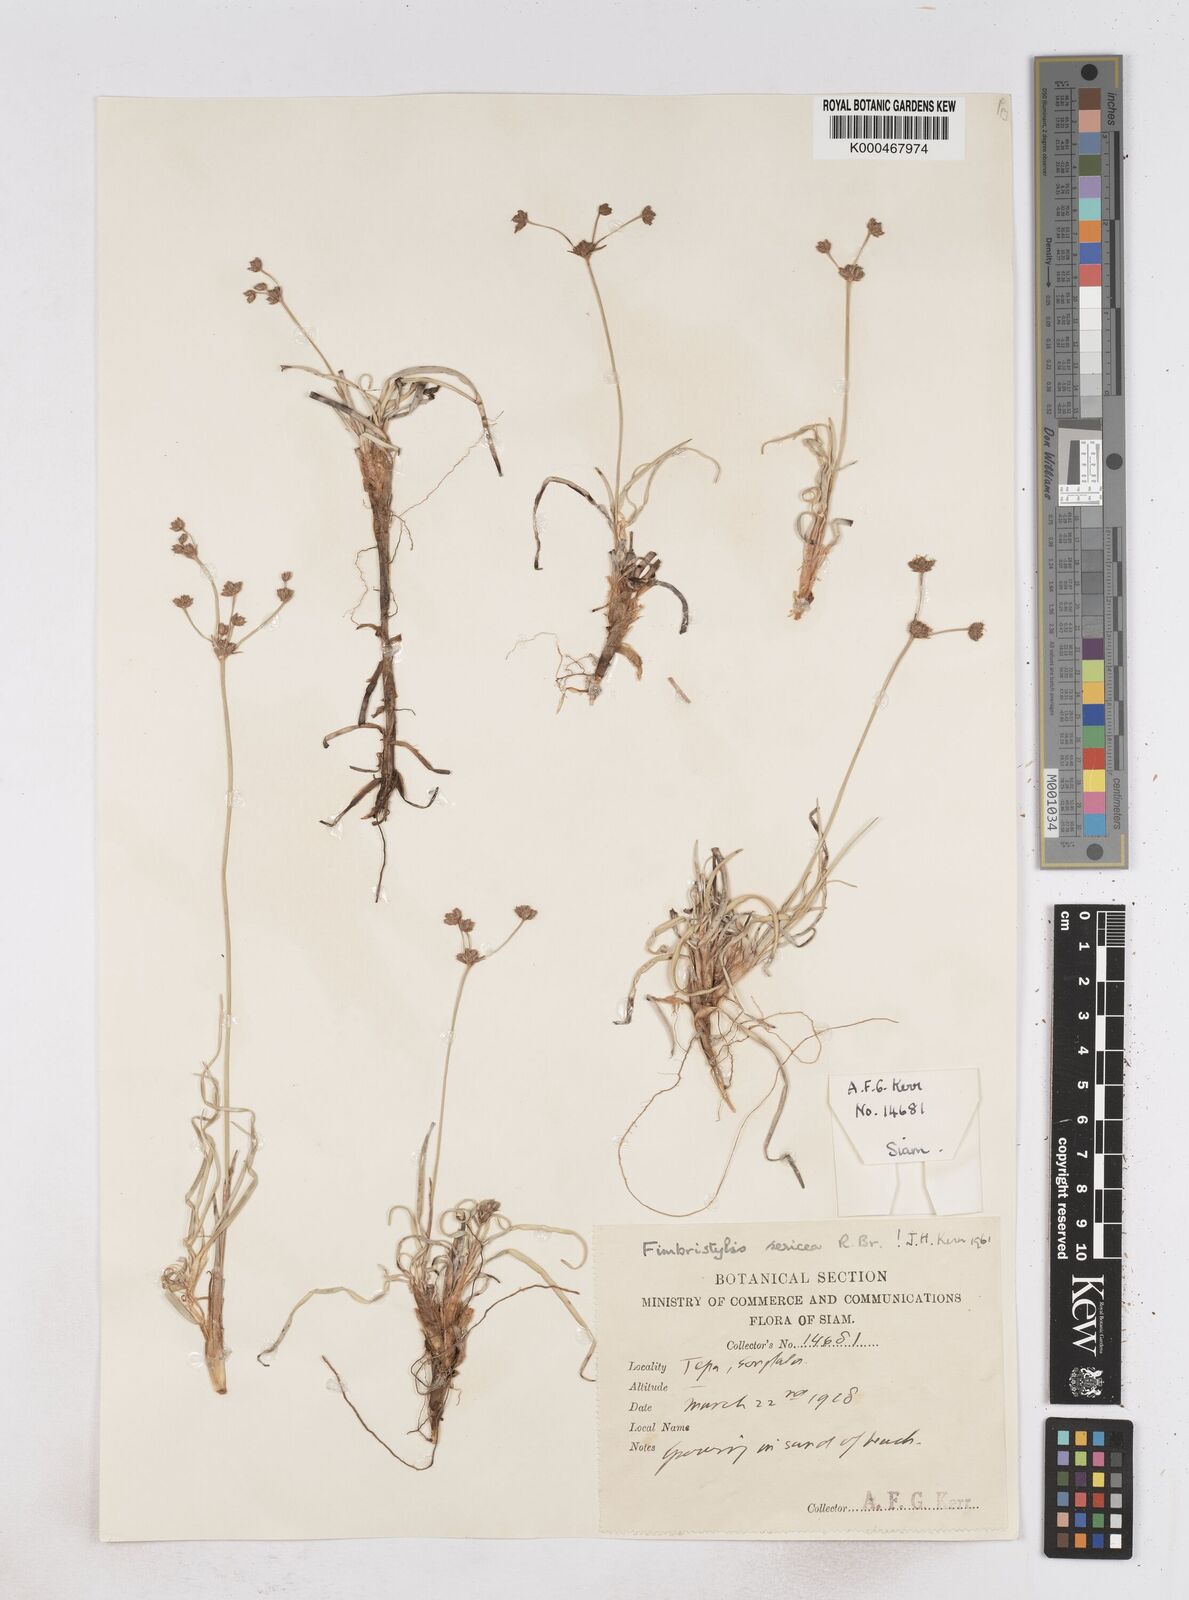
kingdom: Plantae
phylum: Tracheophyta
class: Liliopsida
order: Poales
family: Cyperaceae
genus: Fimbristylis
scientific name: Fimbristylis sericea
